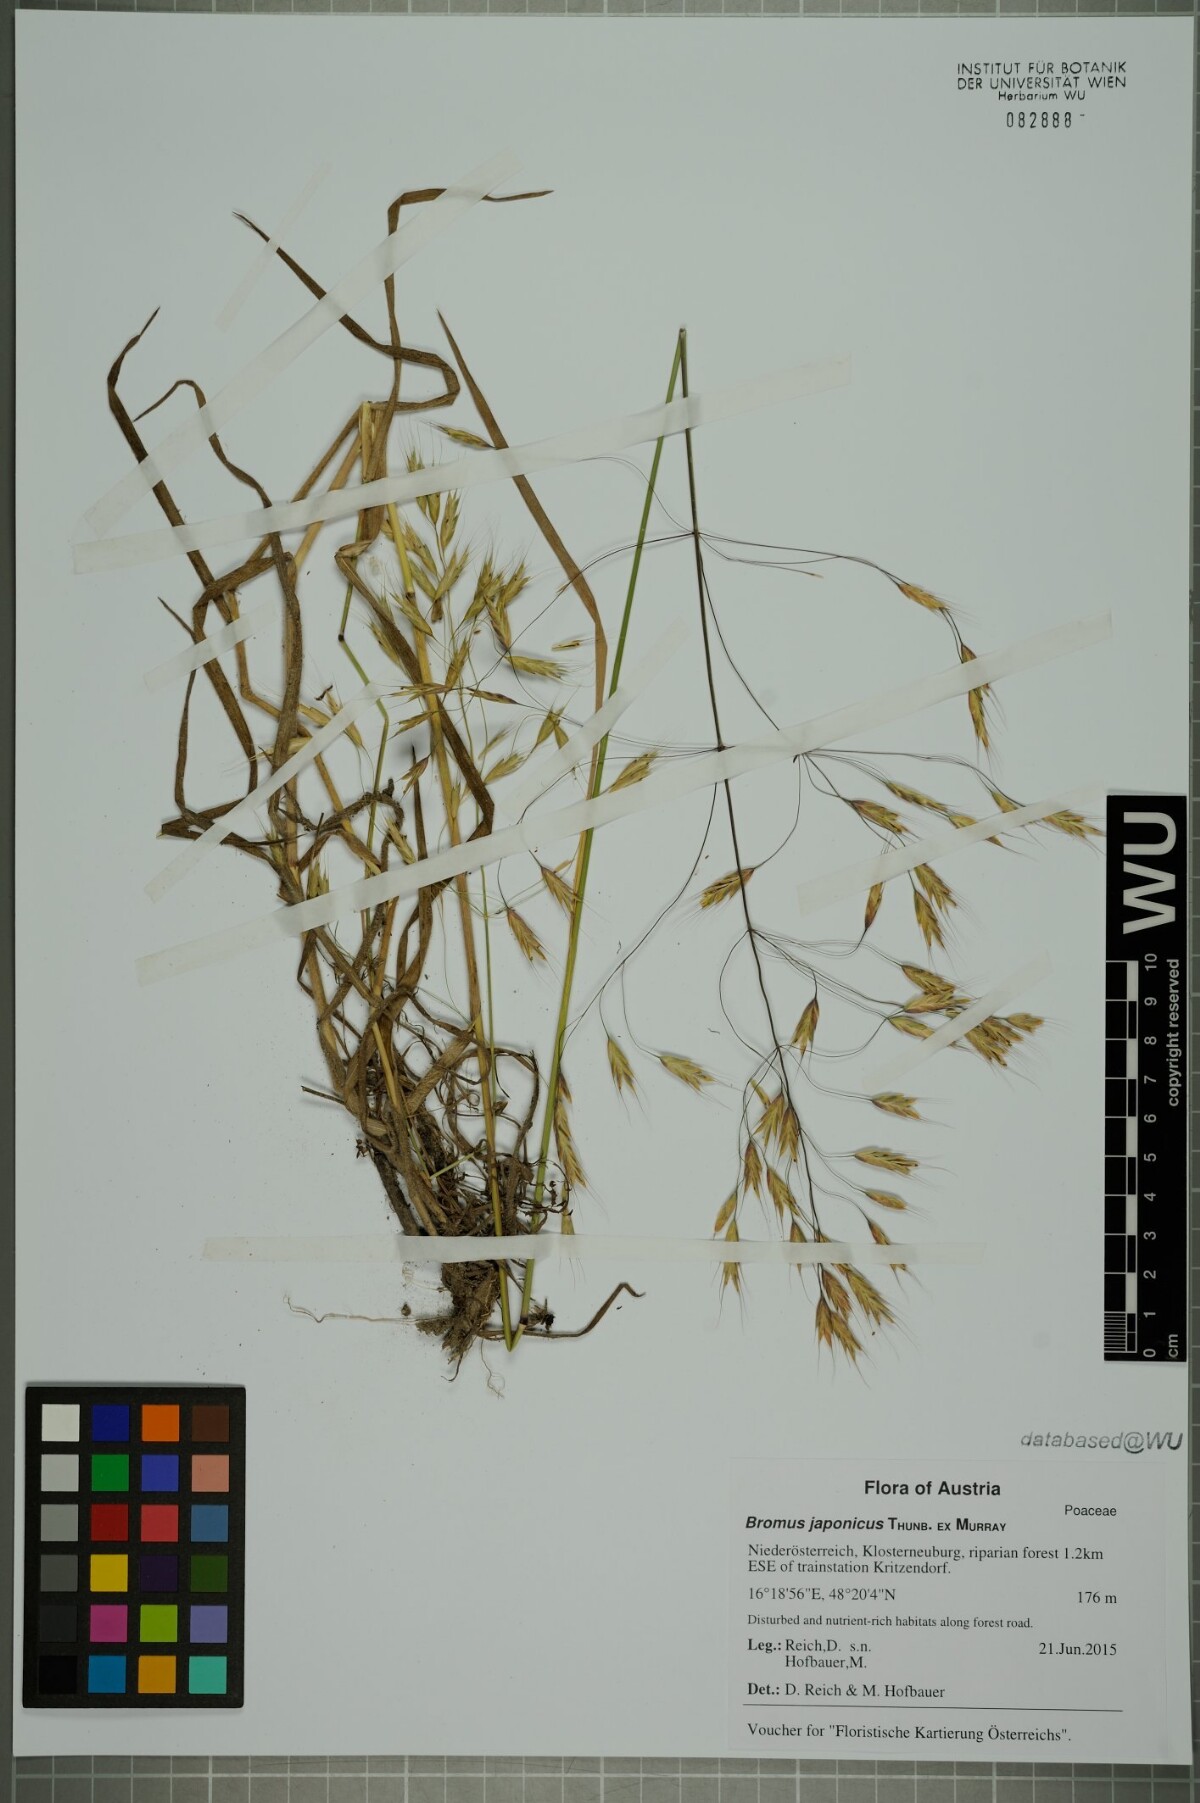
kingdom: Plantae
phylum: Tracheophyta
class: Liliopsida
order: Poales
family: Poaceae
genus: Bromus
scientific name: Bromus japonicus
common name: Japanese brome
